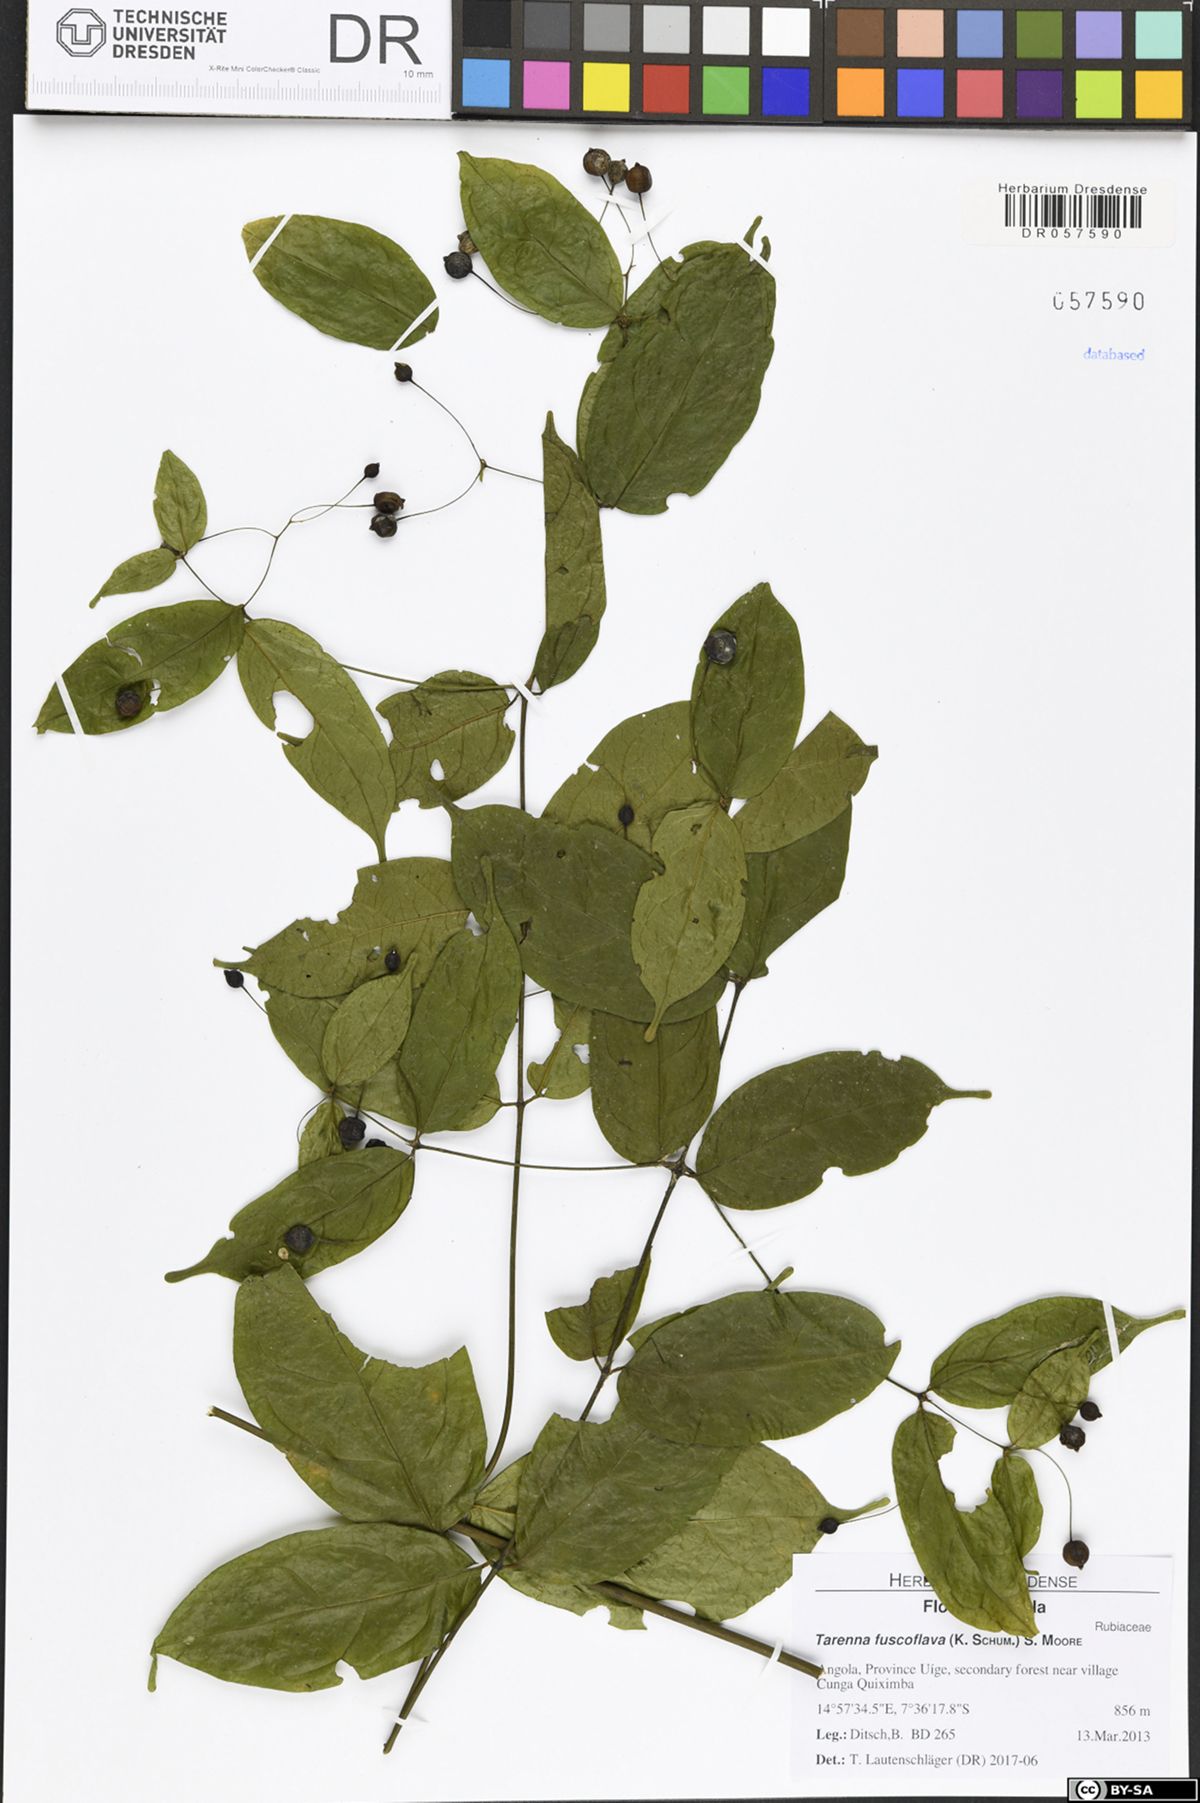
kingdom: Plantae
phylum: Tracheophyta
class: Magnoliopsida
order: Gentianales
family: Rubiaceae
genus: Tarenna
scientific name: Tarenna fuscoflava
